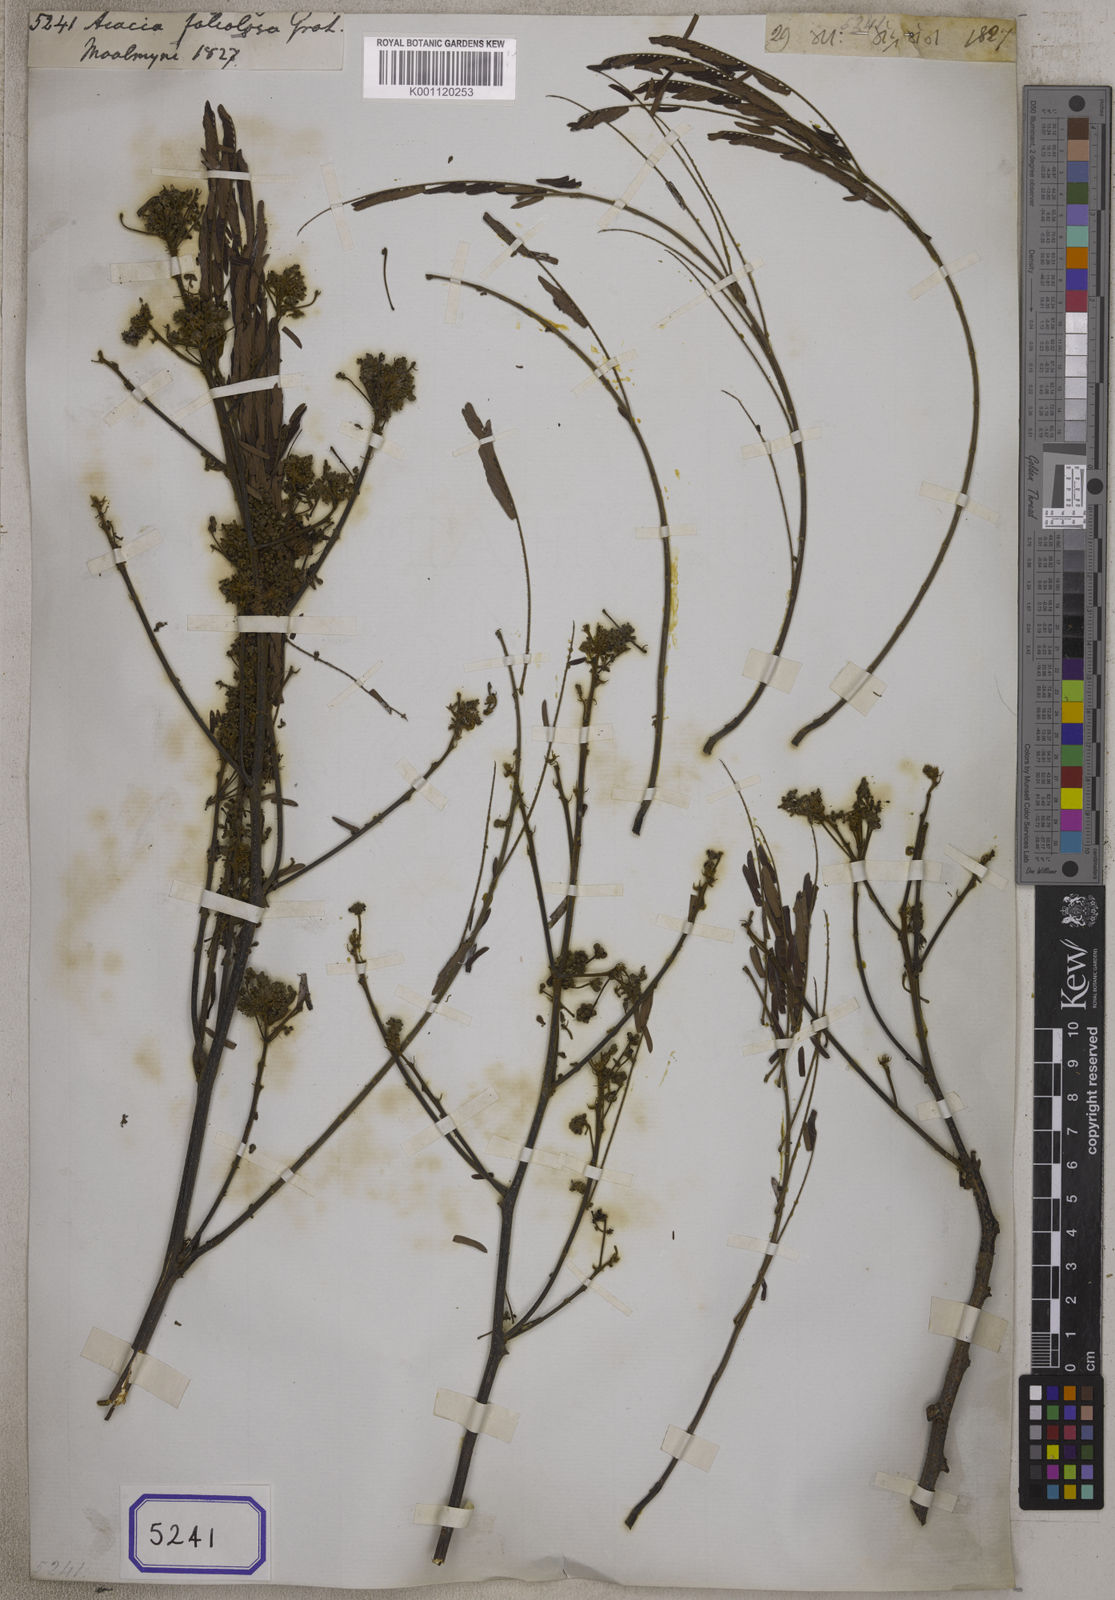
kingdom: Plantae
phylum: Tracheophyta
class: Magnoliopsida
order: Fabales
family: Fabaceae
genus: Albizia
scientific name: Albizia myriophylla
